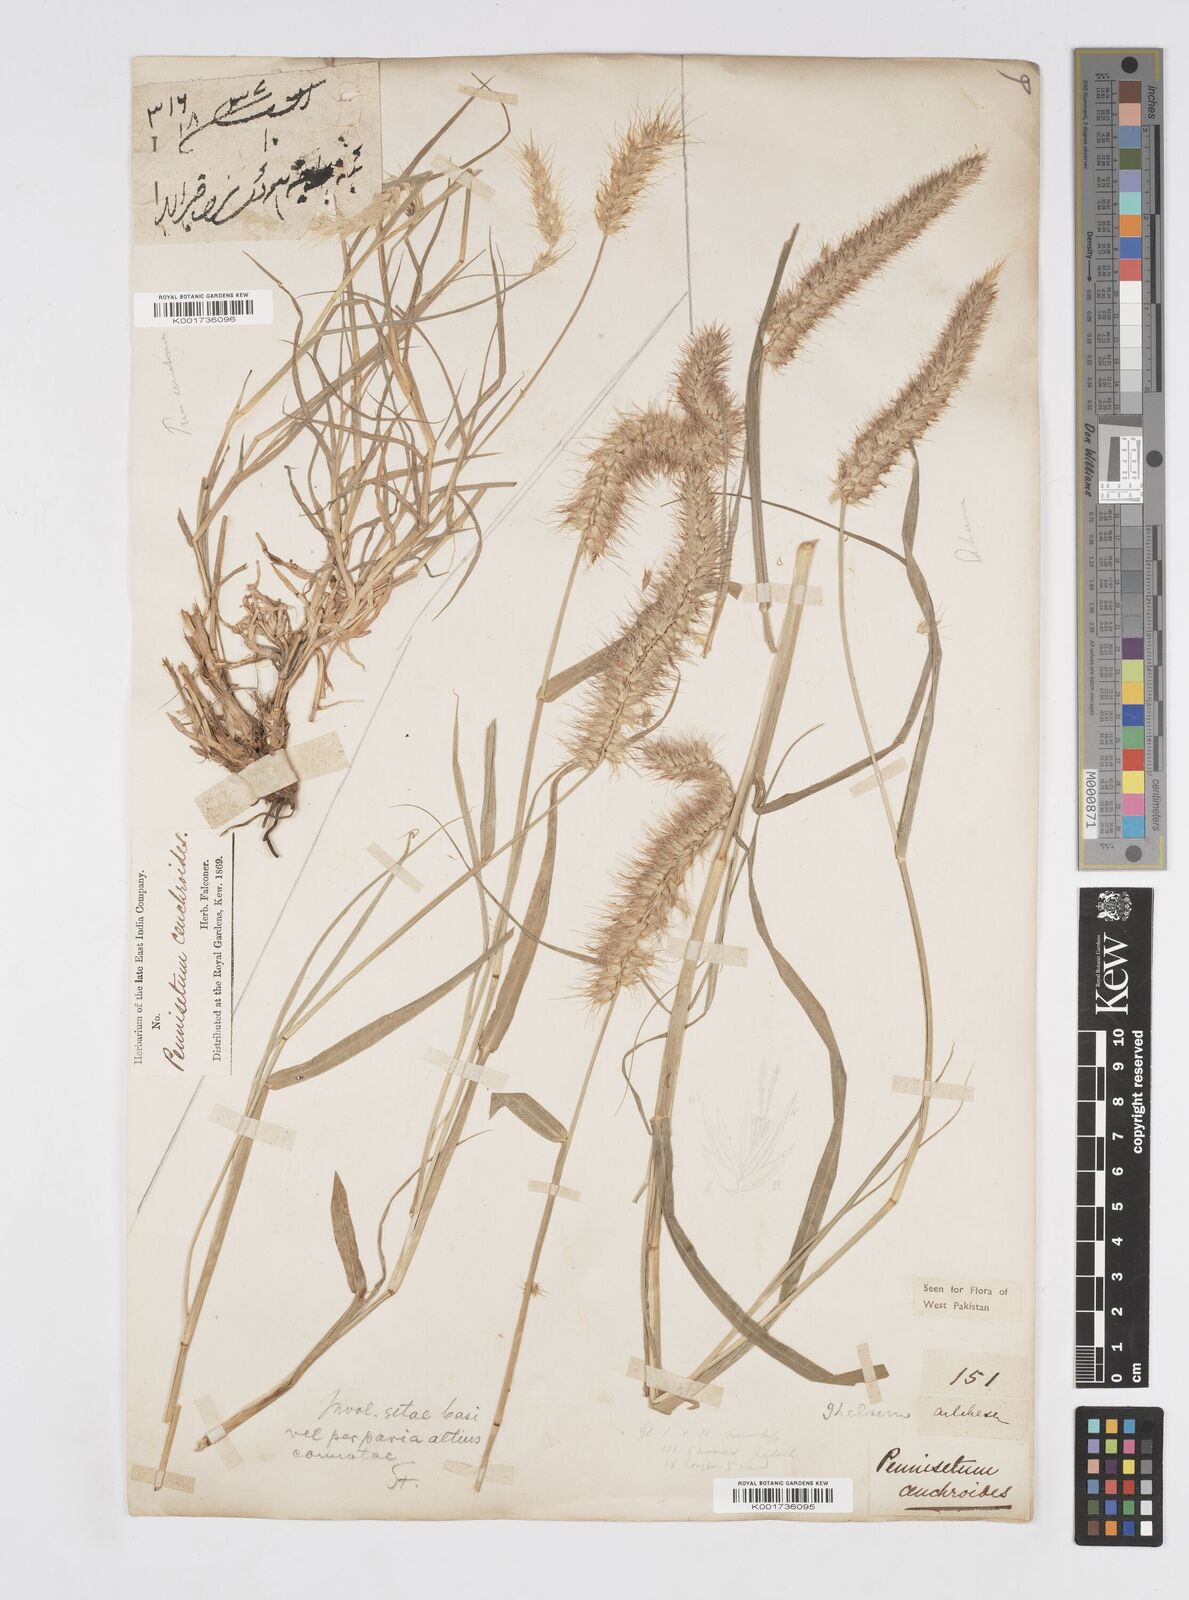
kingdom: Plantae
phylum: Tracheophyta
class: Liliopsida
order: Poales
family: Poaceae
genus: Cenchrus
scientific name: Cenchrus ciliaris
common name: Buffelgrass
